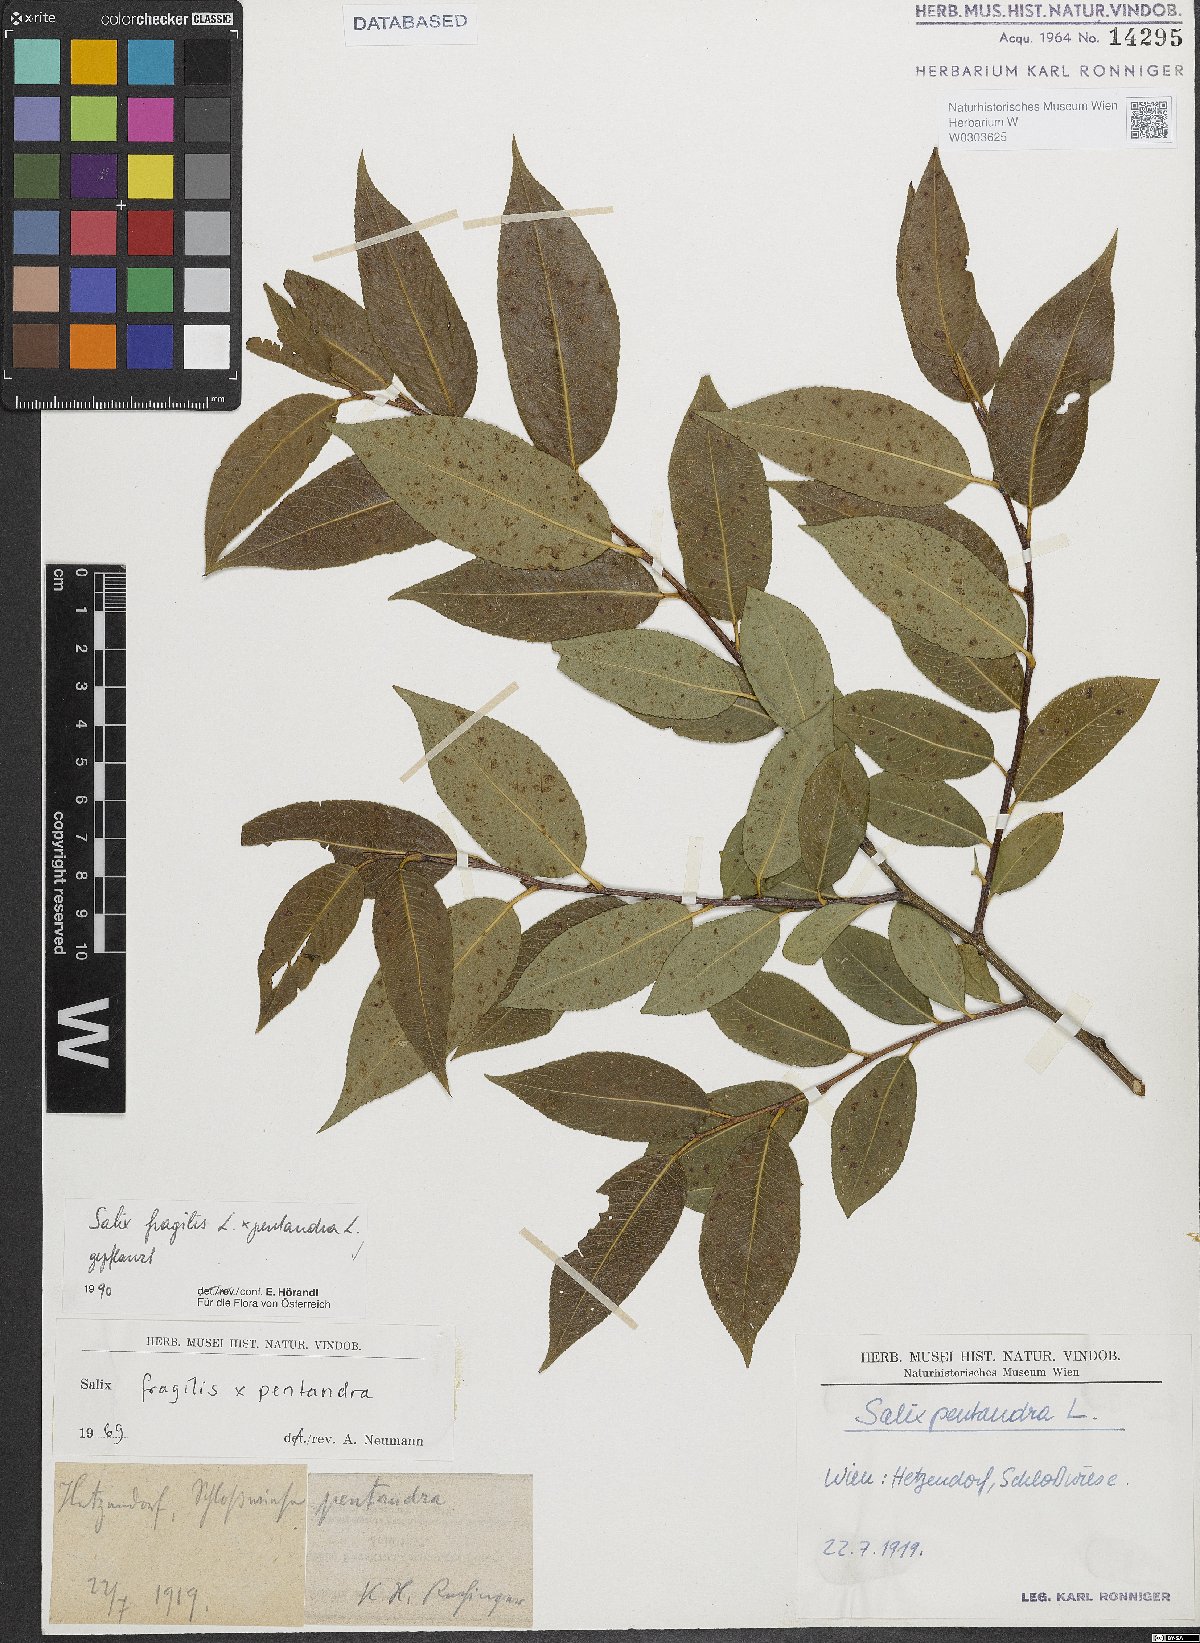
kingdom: Plantae
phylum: Tracheophyta
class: Magnoliopsida
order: Malpighiales
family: Salicaceae
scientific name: Salicaceae
